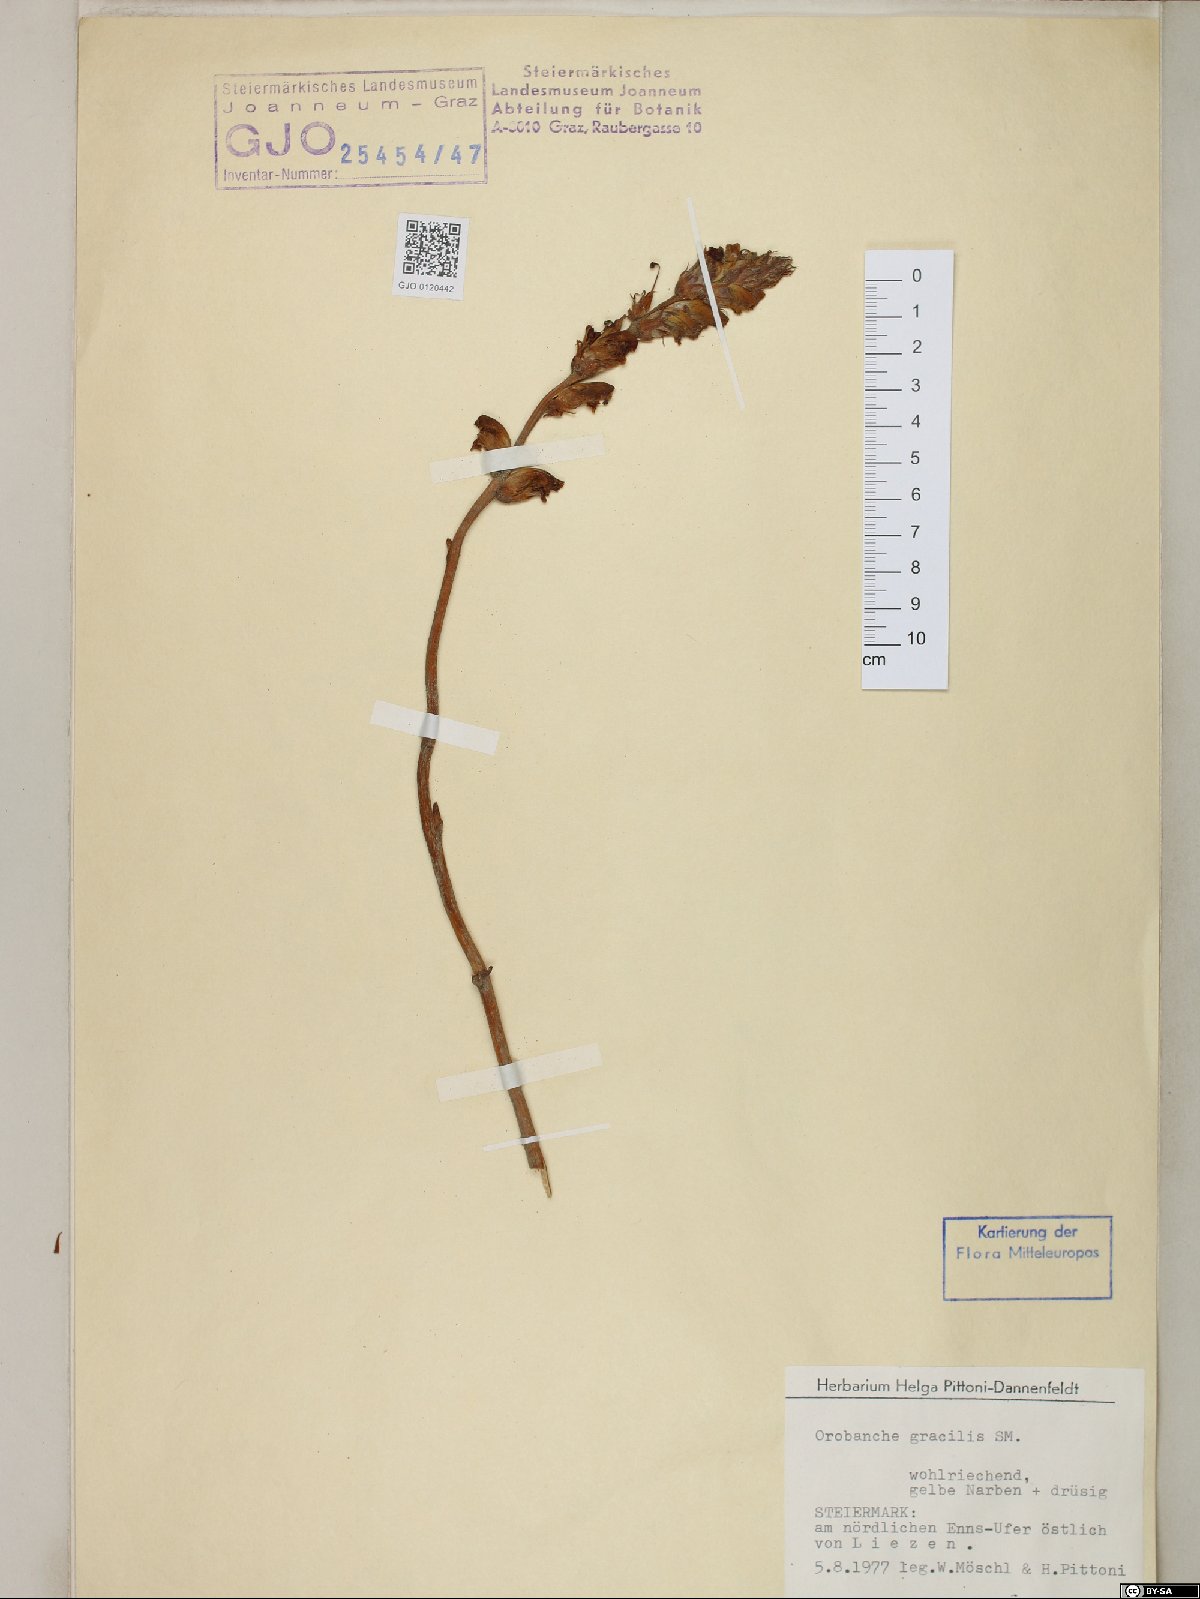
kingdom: Plantae
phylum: Tracheophyta
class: Magnoliopsida
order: Lamiales
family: Orobanchaceae
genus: Orobanche
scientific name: Orobanche gracilis
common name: Slender broomrape
